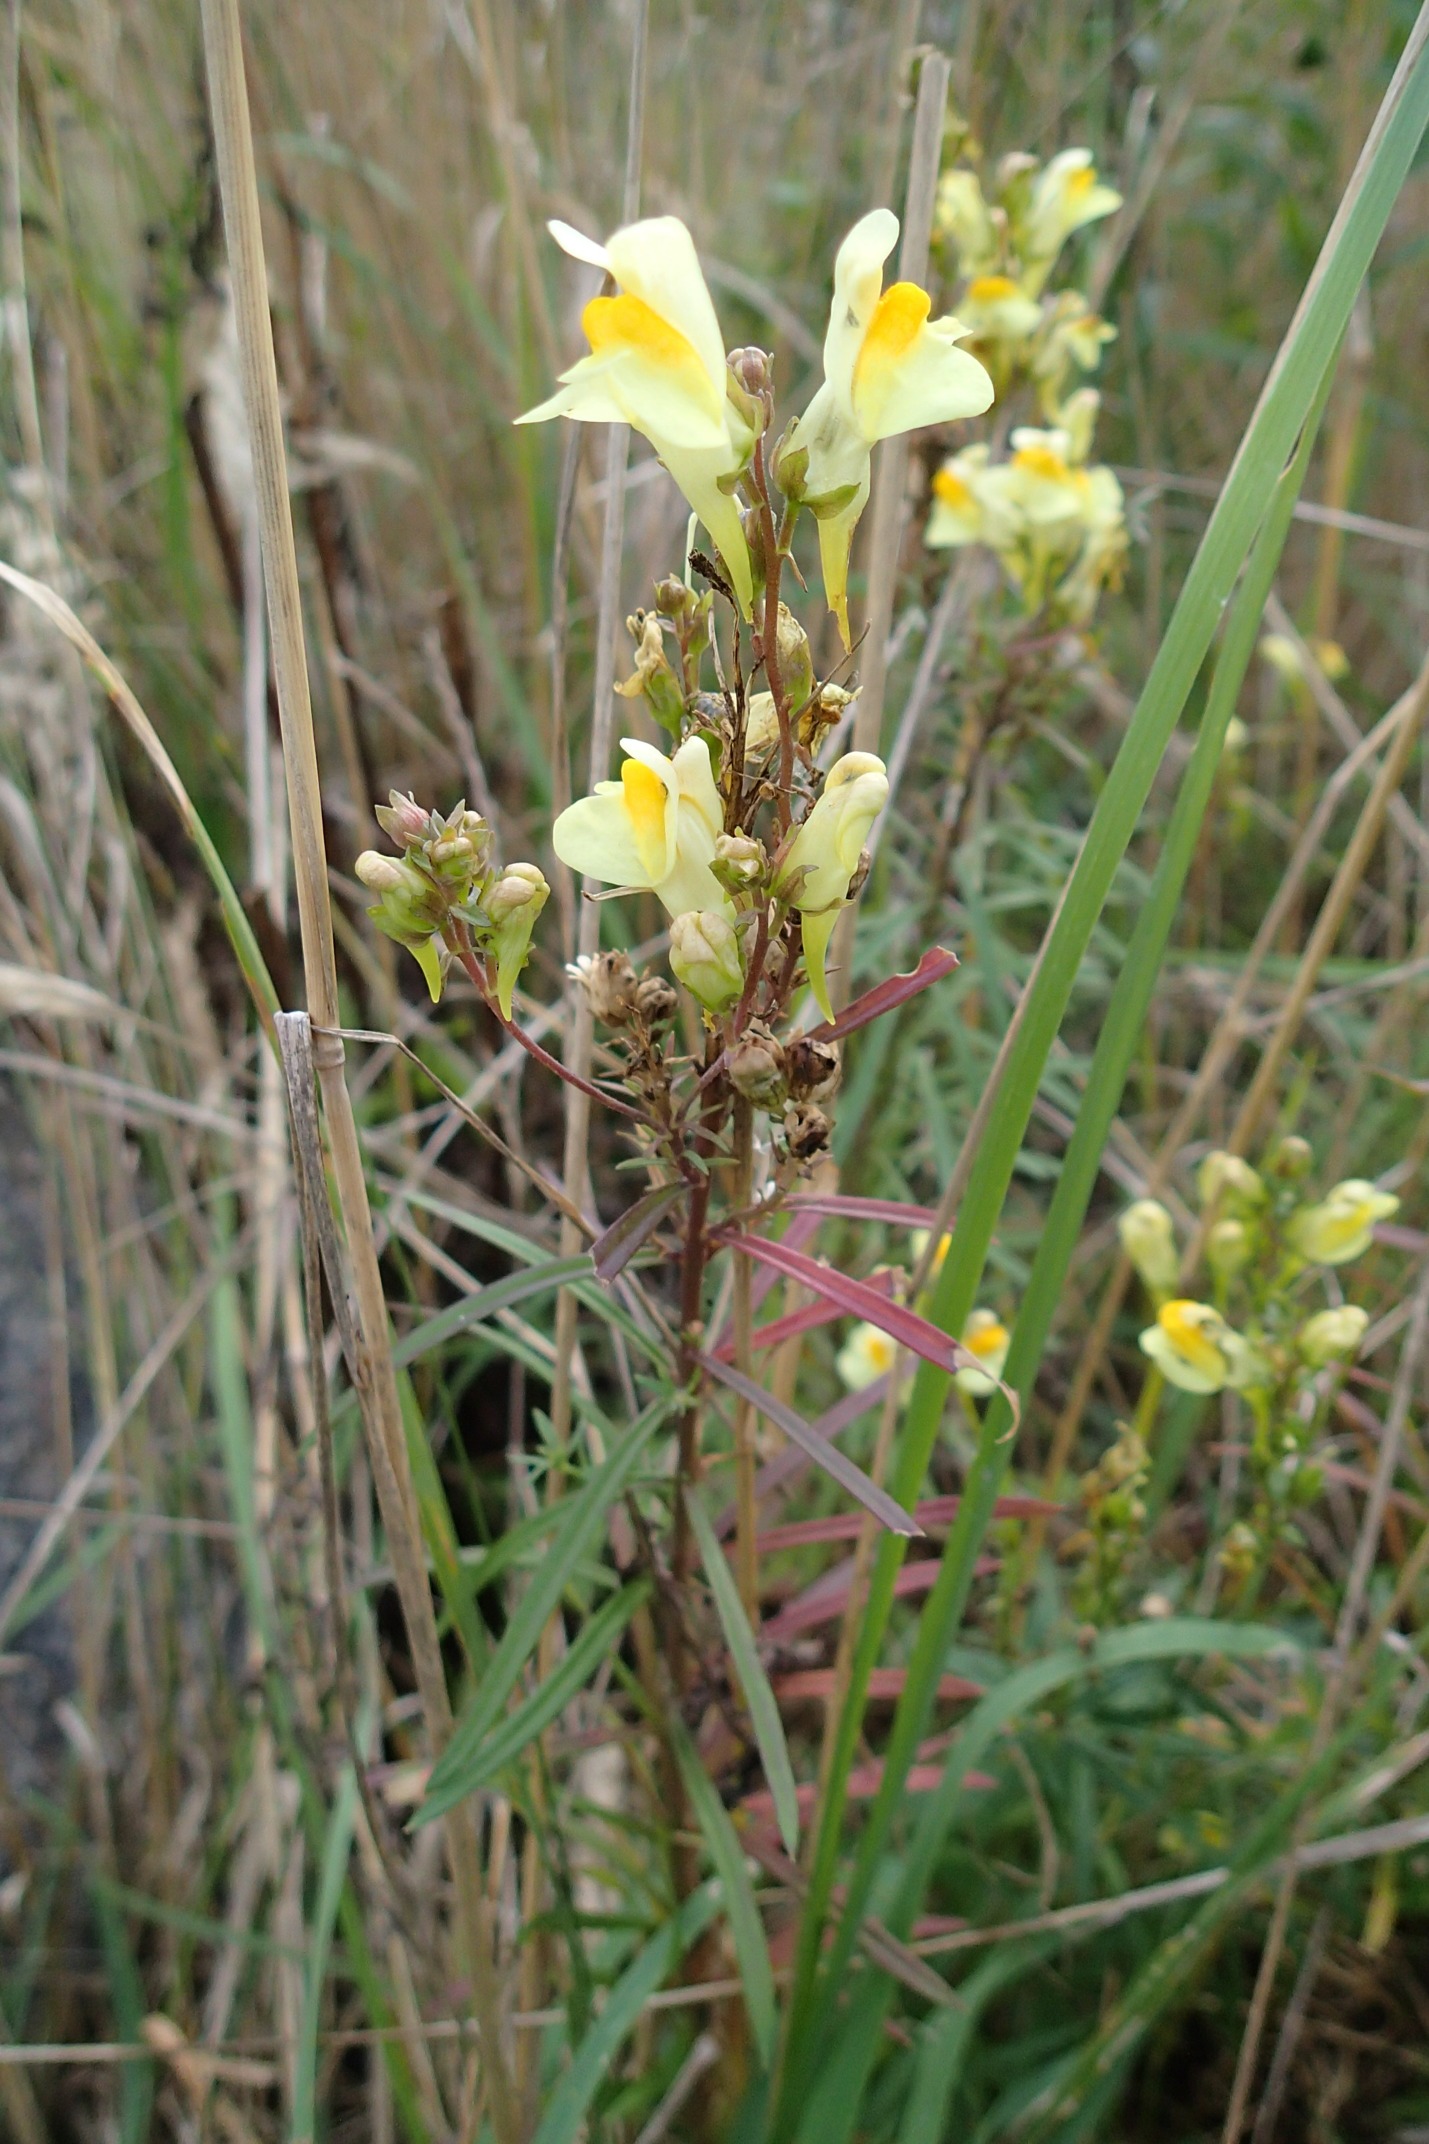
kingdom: Plantae
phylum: Tracheophyta
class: Magnoliopsida
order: Lamiales
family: Plantaginaceae
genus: Linaria
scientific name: Linaria vulgaris
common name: Almindelig torskemund
